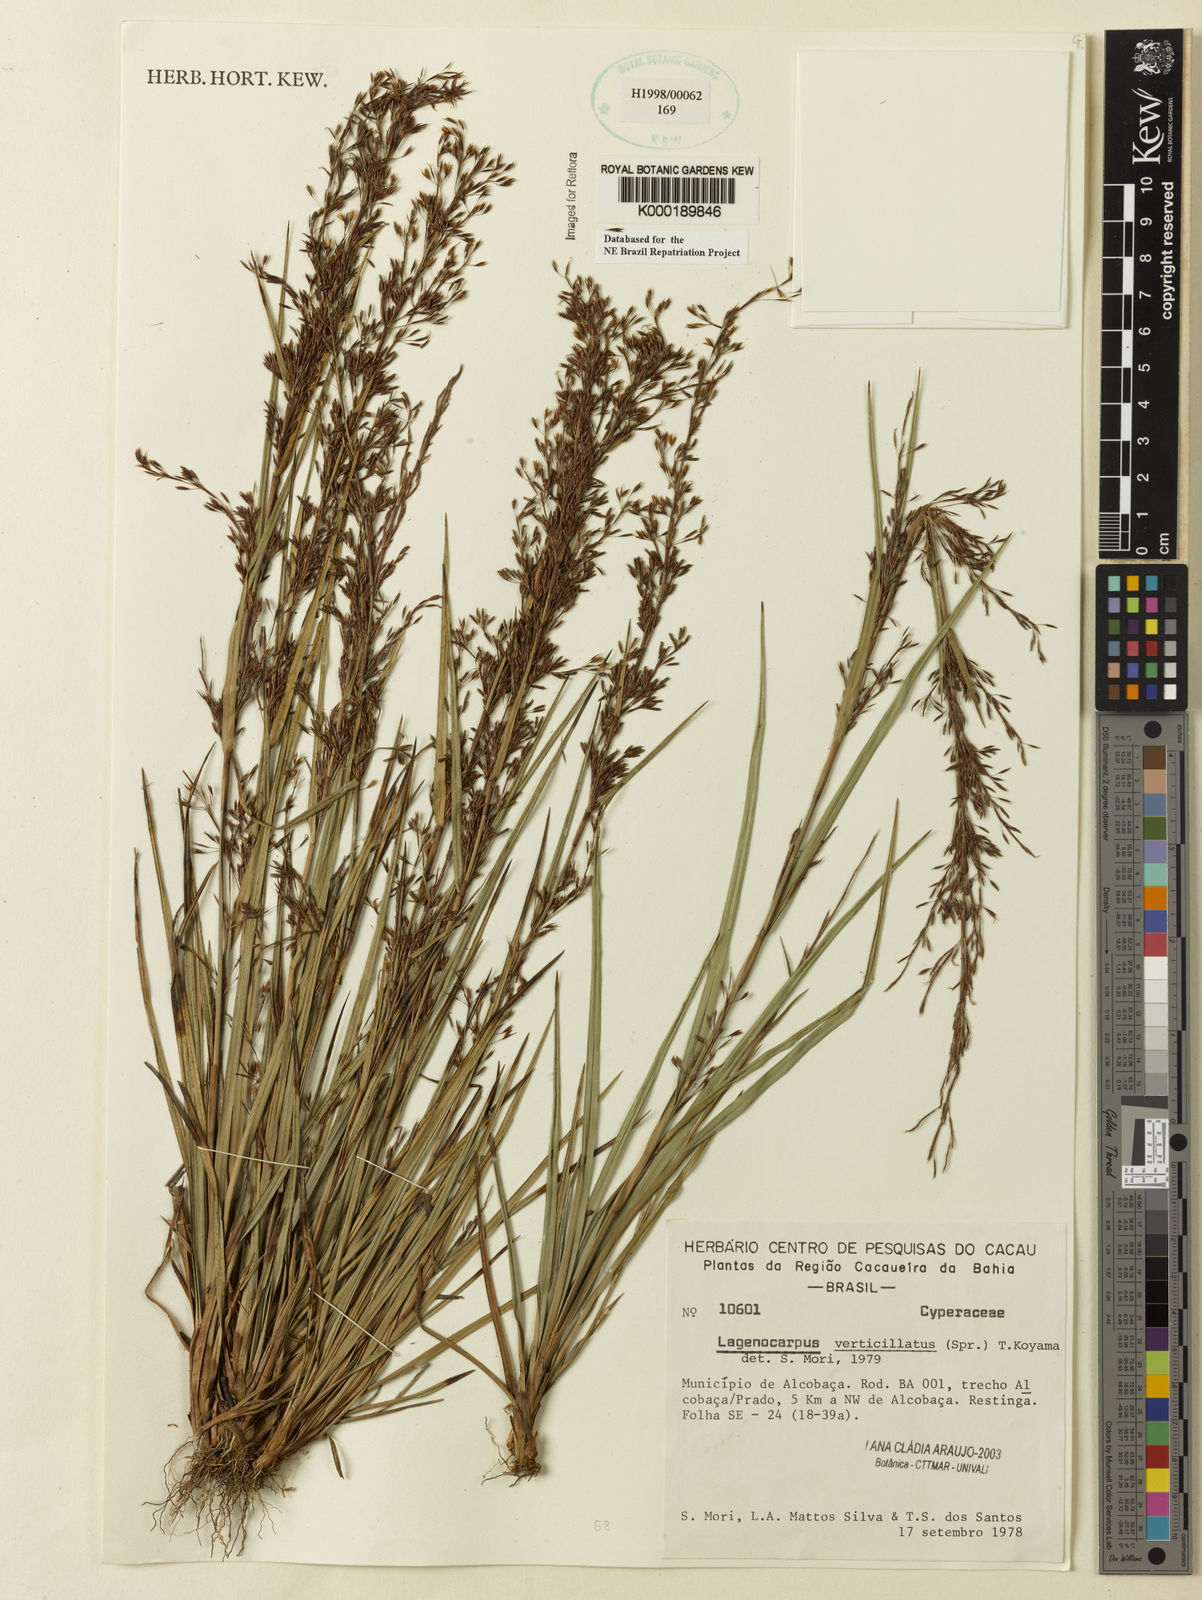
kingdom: Plantae
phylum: Tracheophyta
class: Liliopsida
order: Poales
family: Cyperaceae
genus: Cryptangium
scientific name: Cryptangium verticillatum
